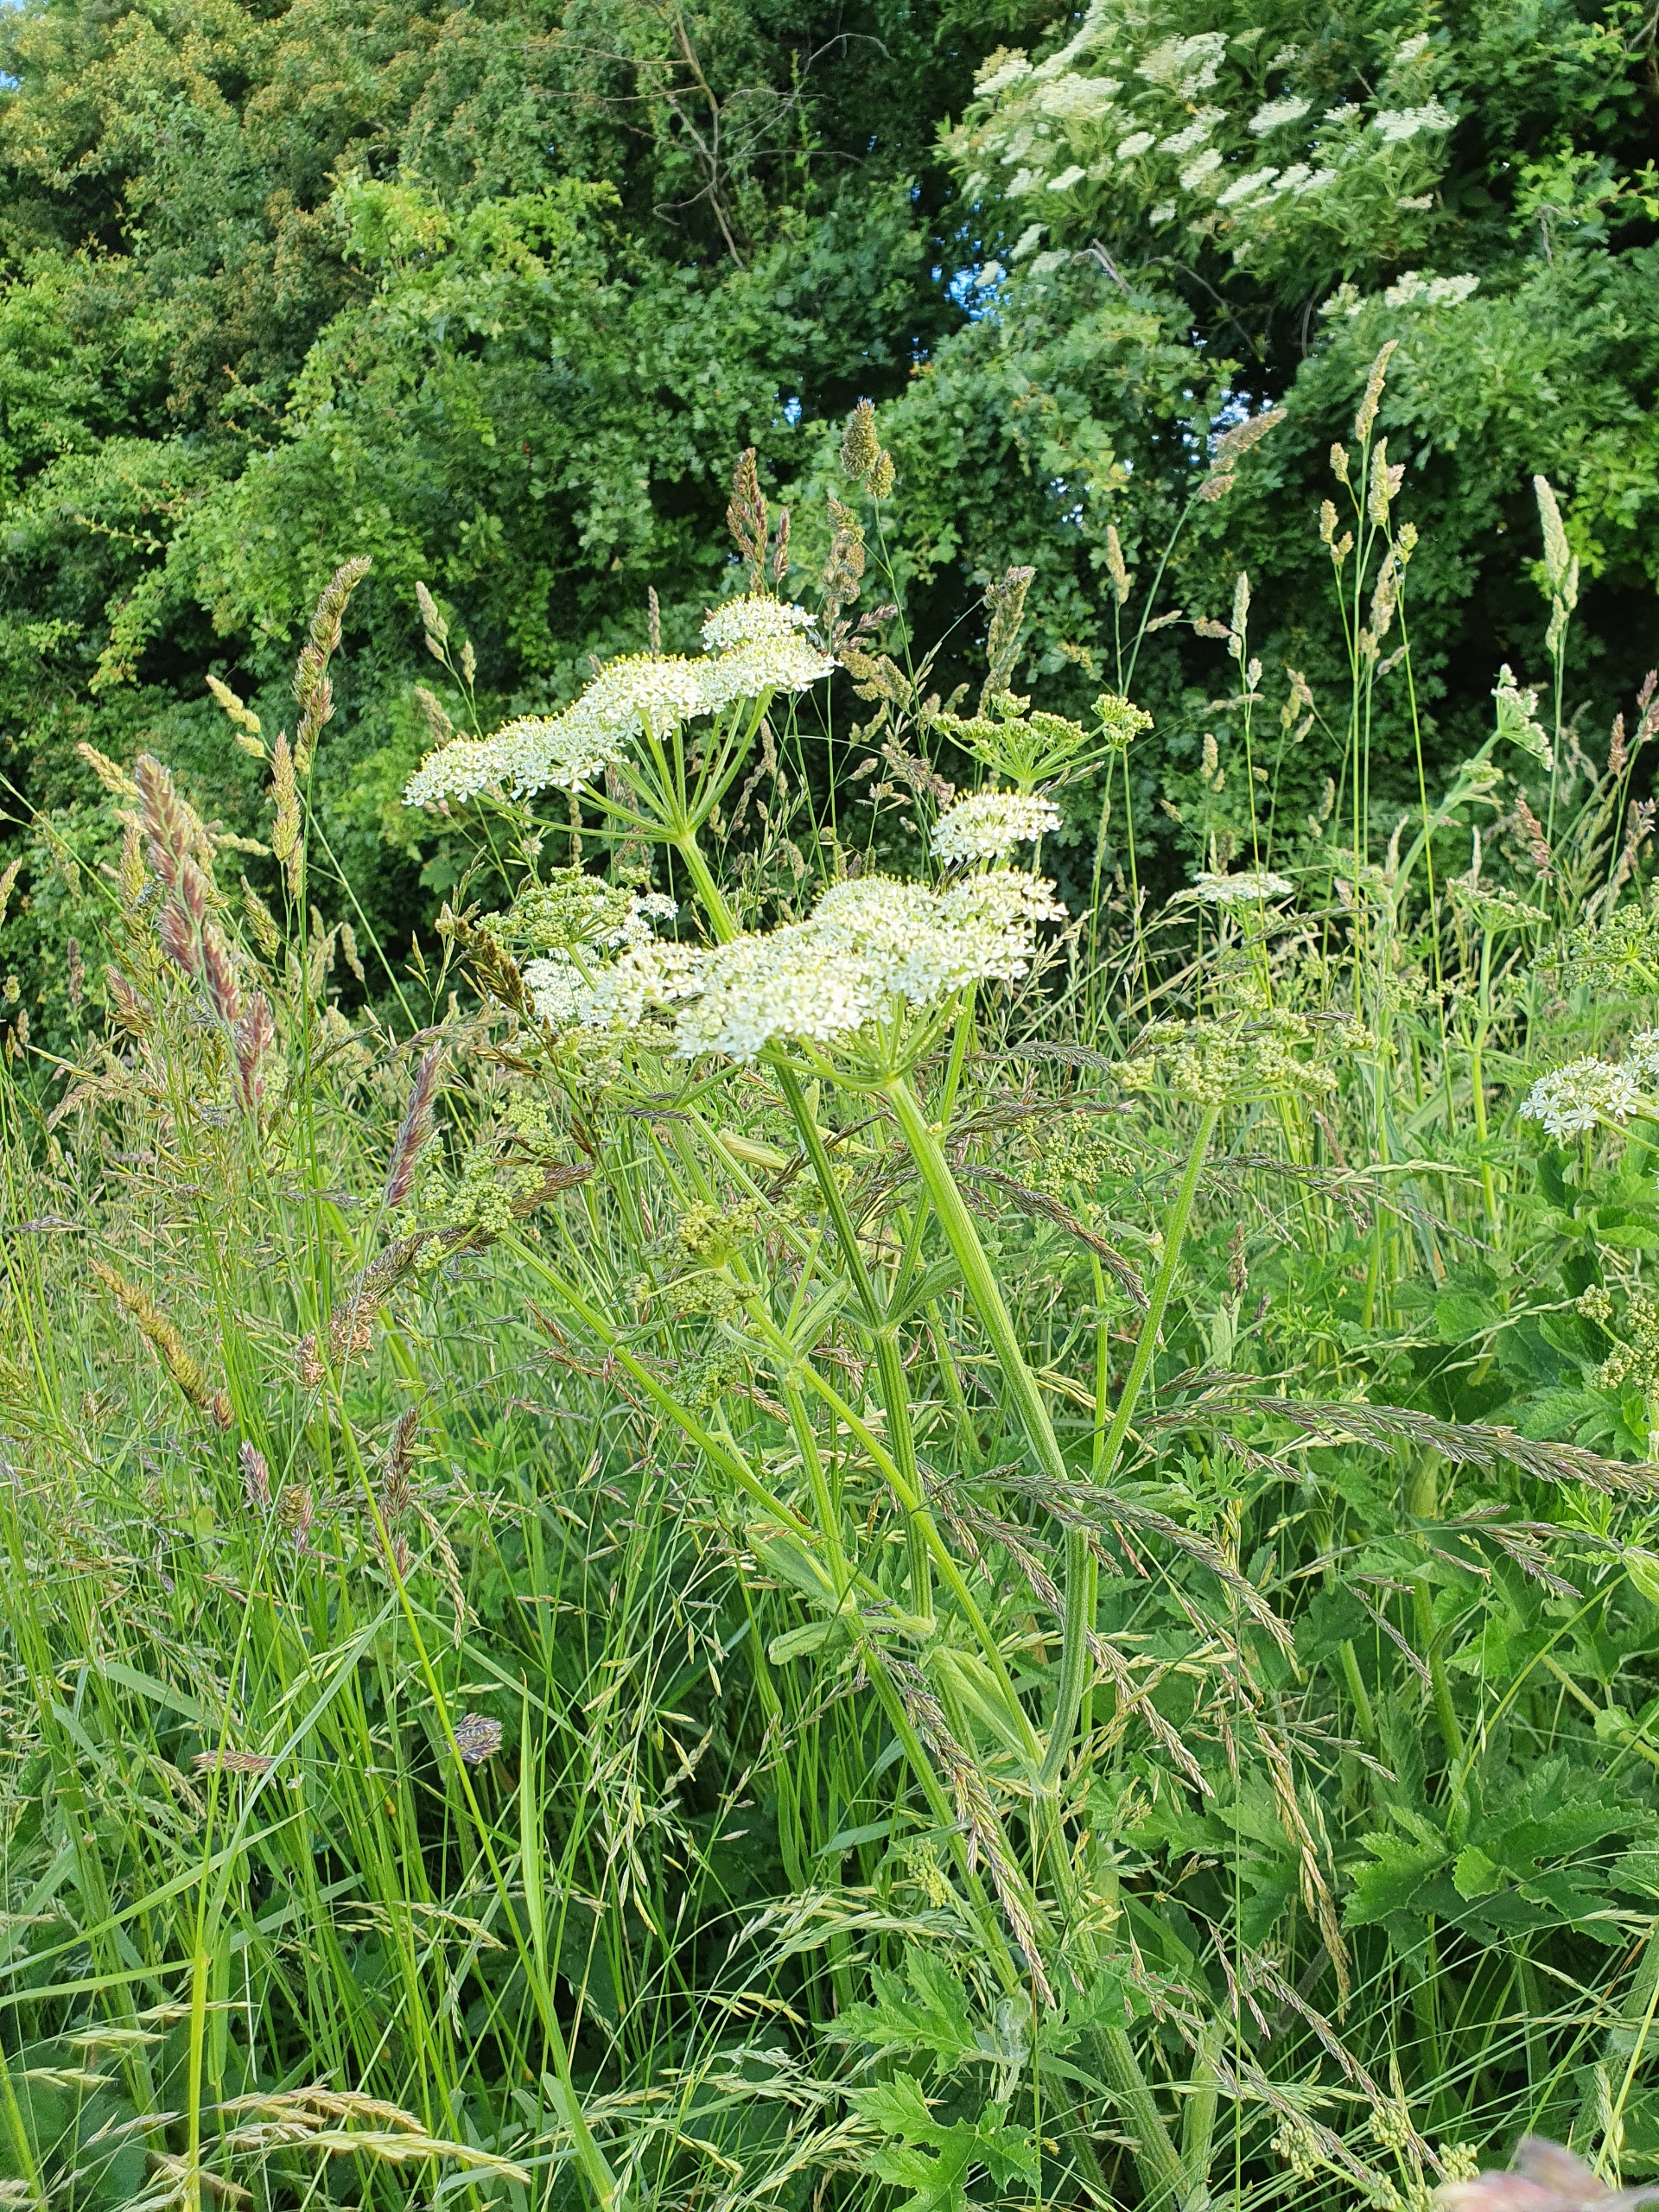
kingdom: Plantae
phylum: Tracheophyta
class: Magnoliopsida
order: Apiales
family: Apiaceae
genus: Heracleum
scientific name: Heracleum sphondylium
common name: Almindelig bjørneklo
